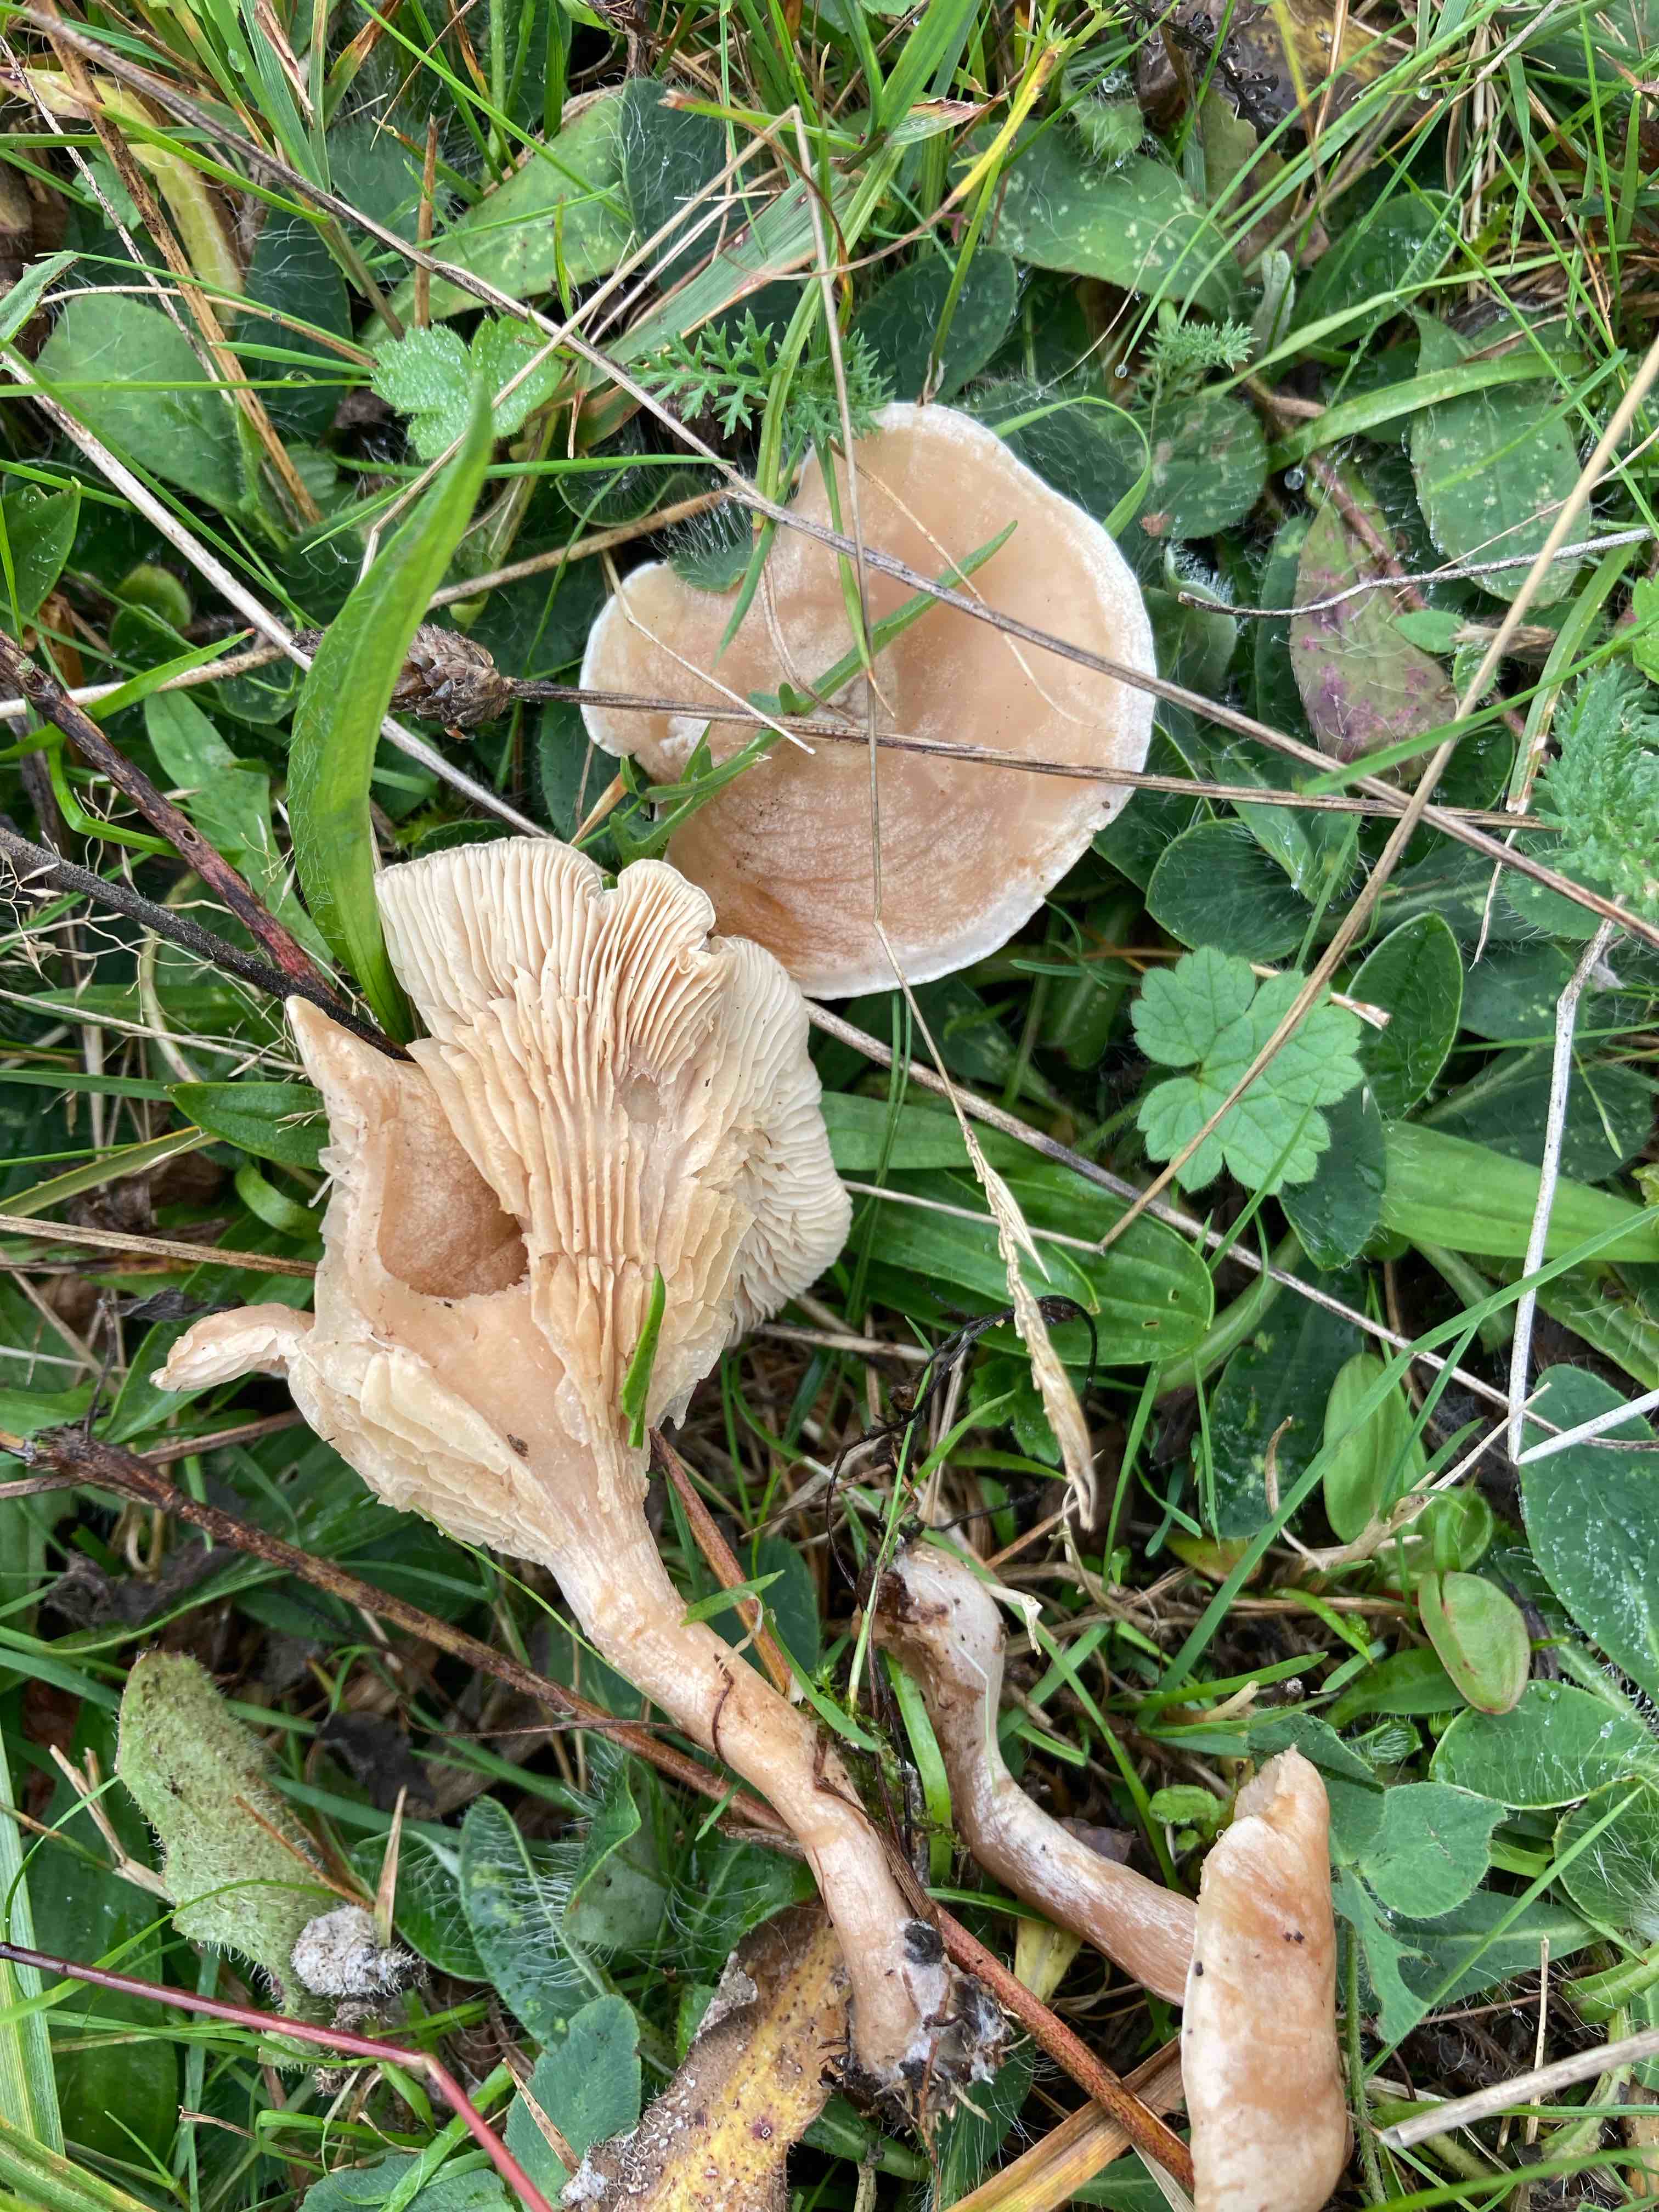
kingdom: Fungi
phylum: Basidiomycota
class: Agaricomycetes
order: Agaricales
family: Tricholomataceae
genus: Clitocybe
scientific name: Clitocybe
